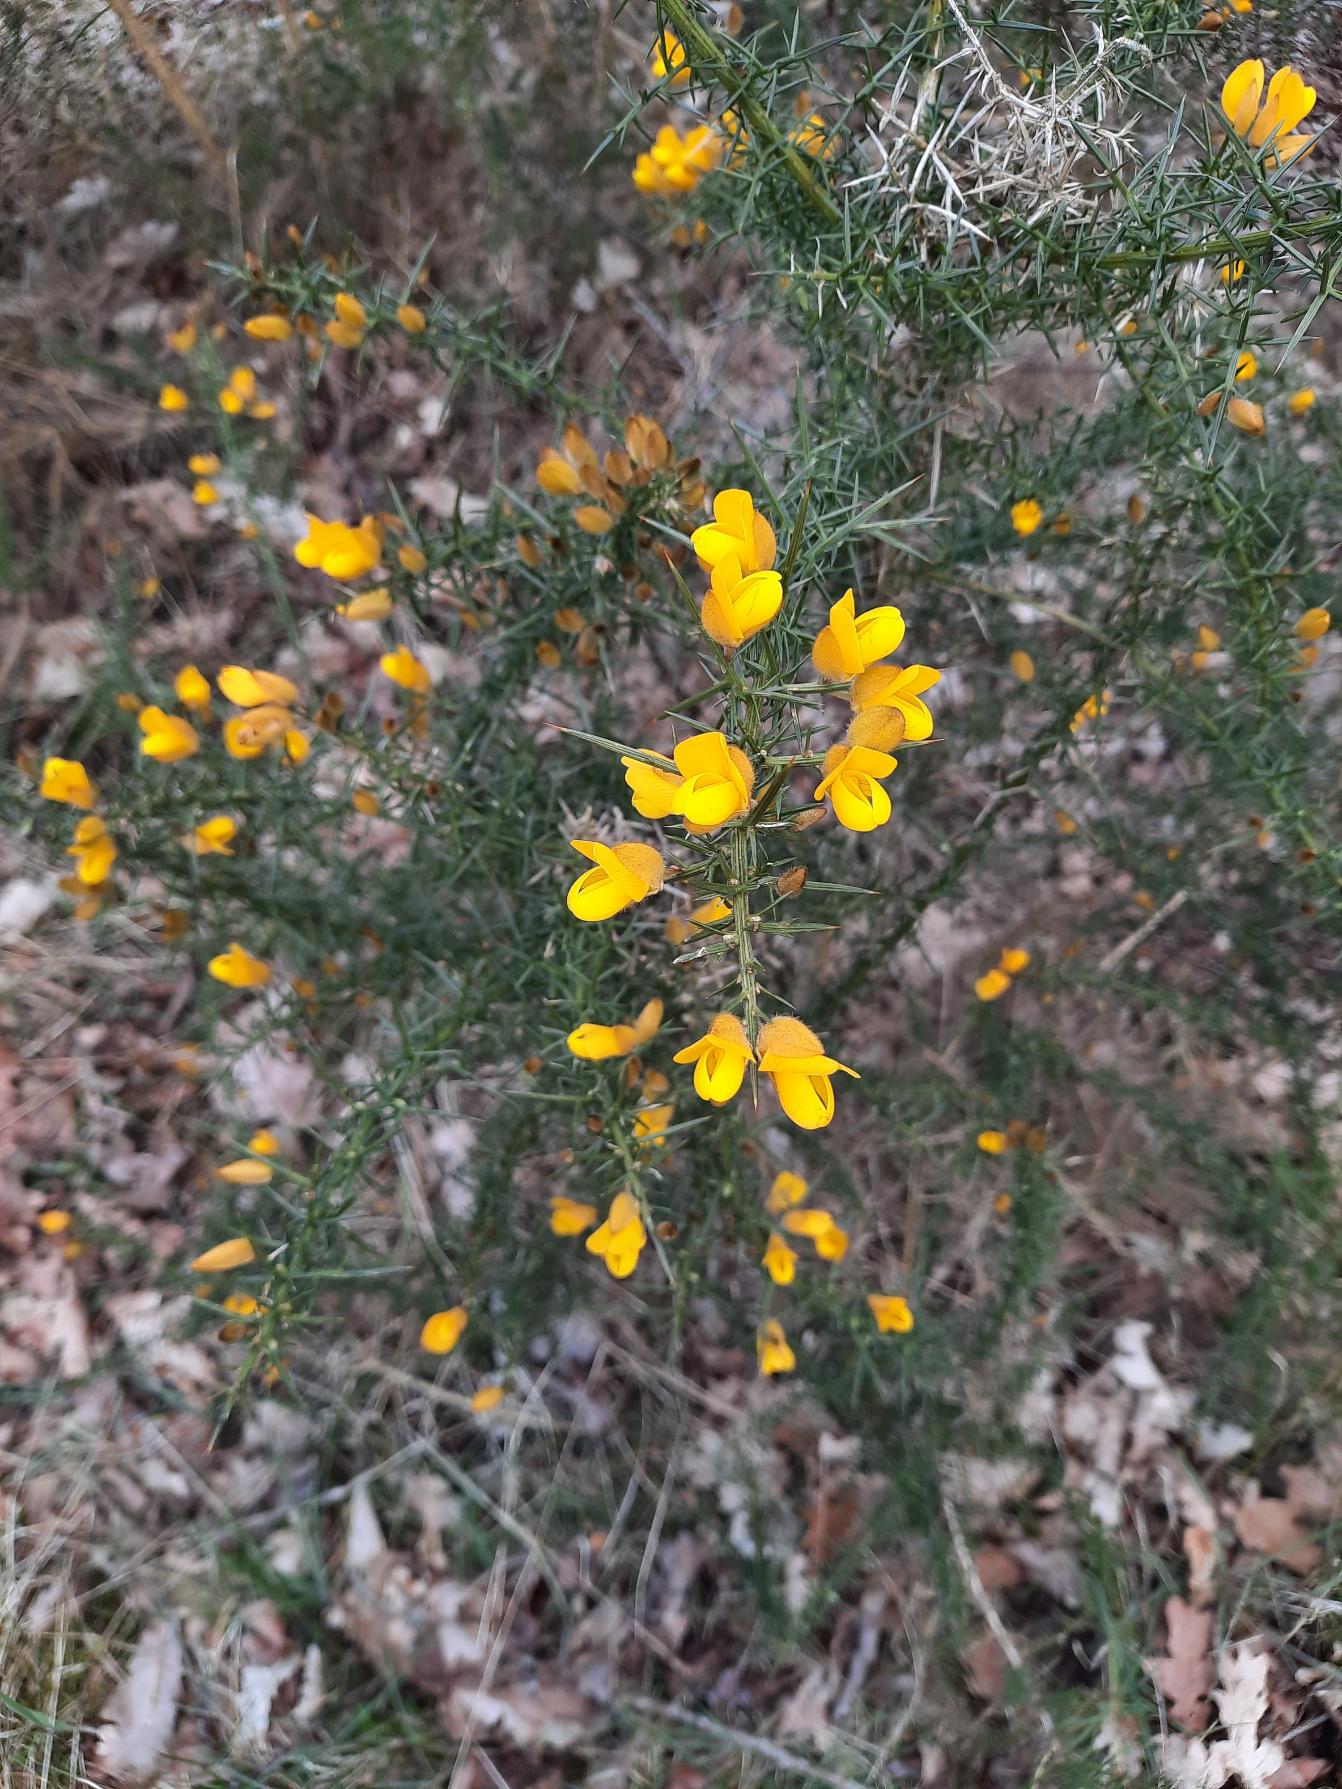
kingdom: Plantae
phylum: Tracheophyta
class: Magnoliopsida
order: Fabales
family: Fabaceae
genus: Ulex
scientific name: Ulex europaeus
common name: Tornblad
